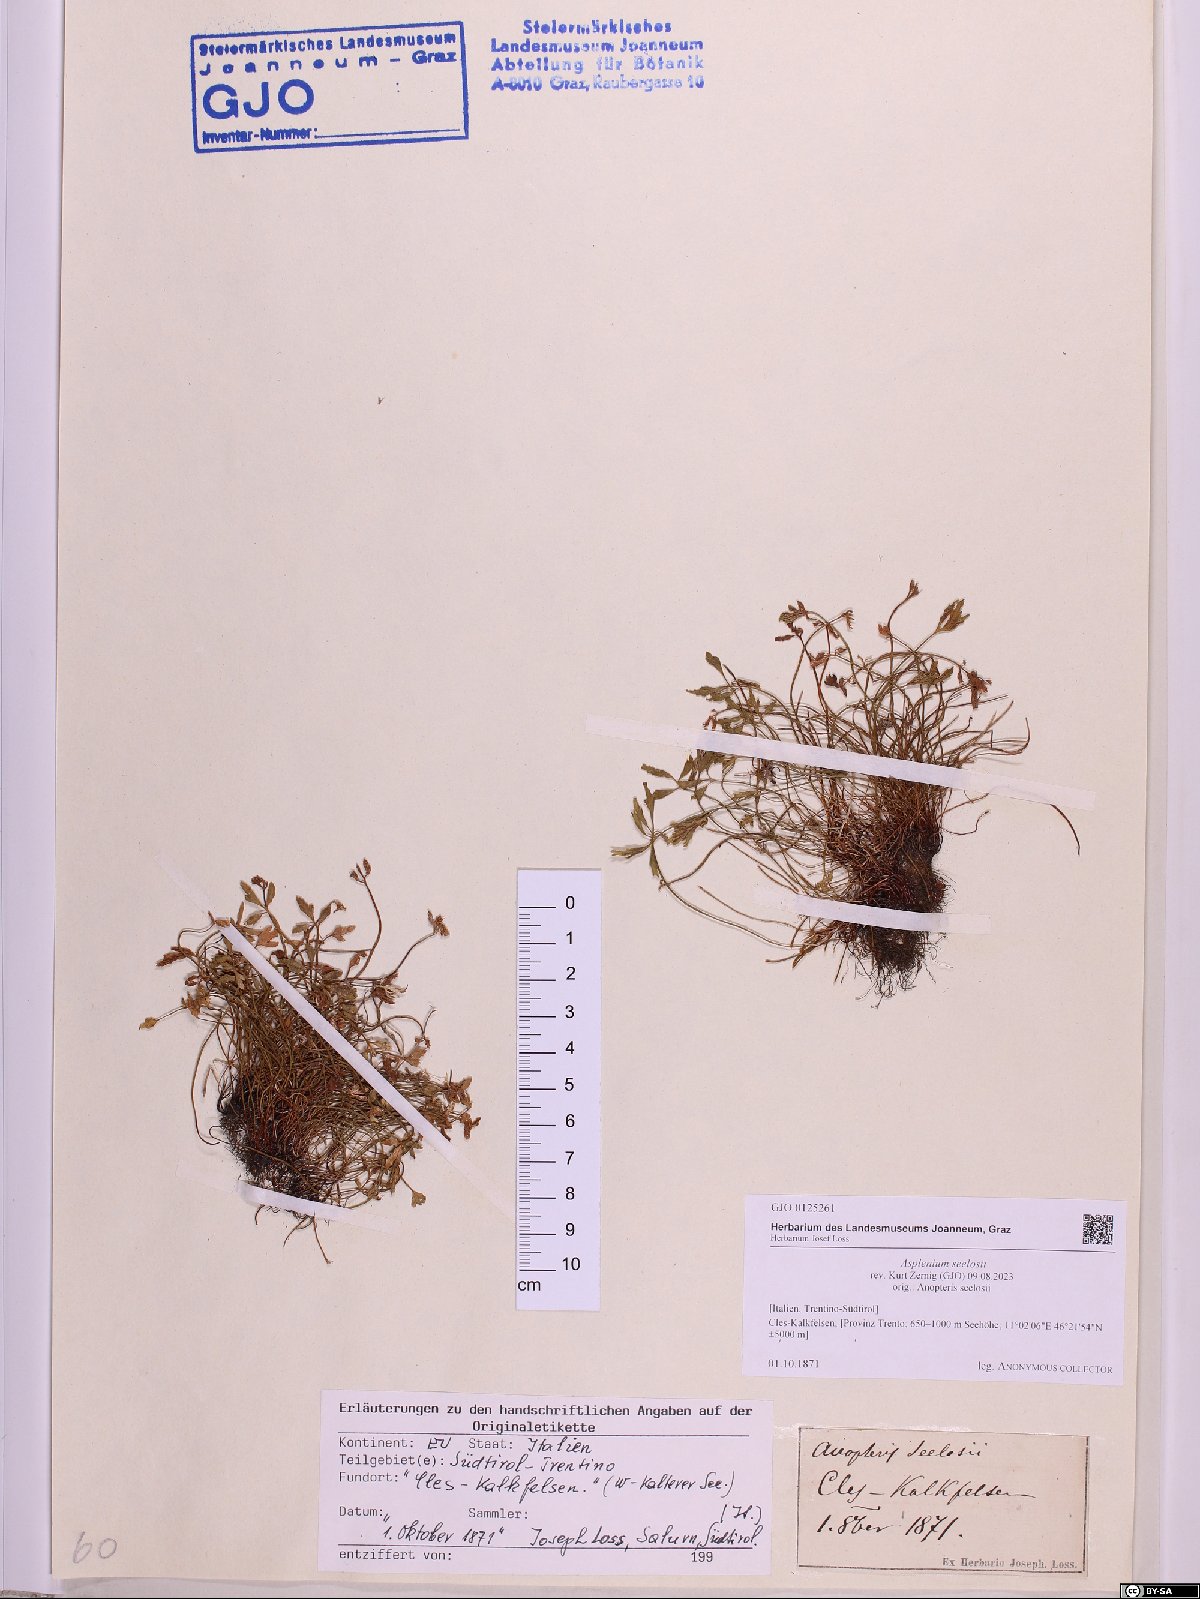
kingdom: Plantae
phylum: Tracheophyta
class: Polypodiopsida
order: Polypodiales
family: Aspleniaceae
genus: Asplenium
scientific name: Asplenium seelosii
